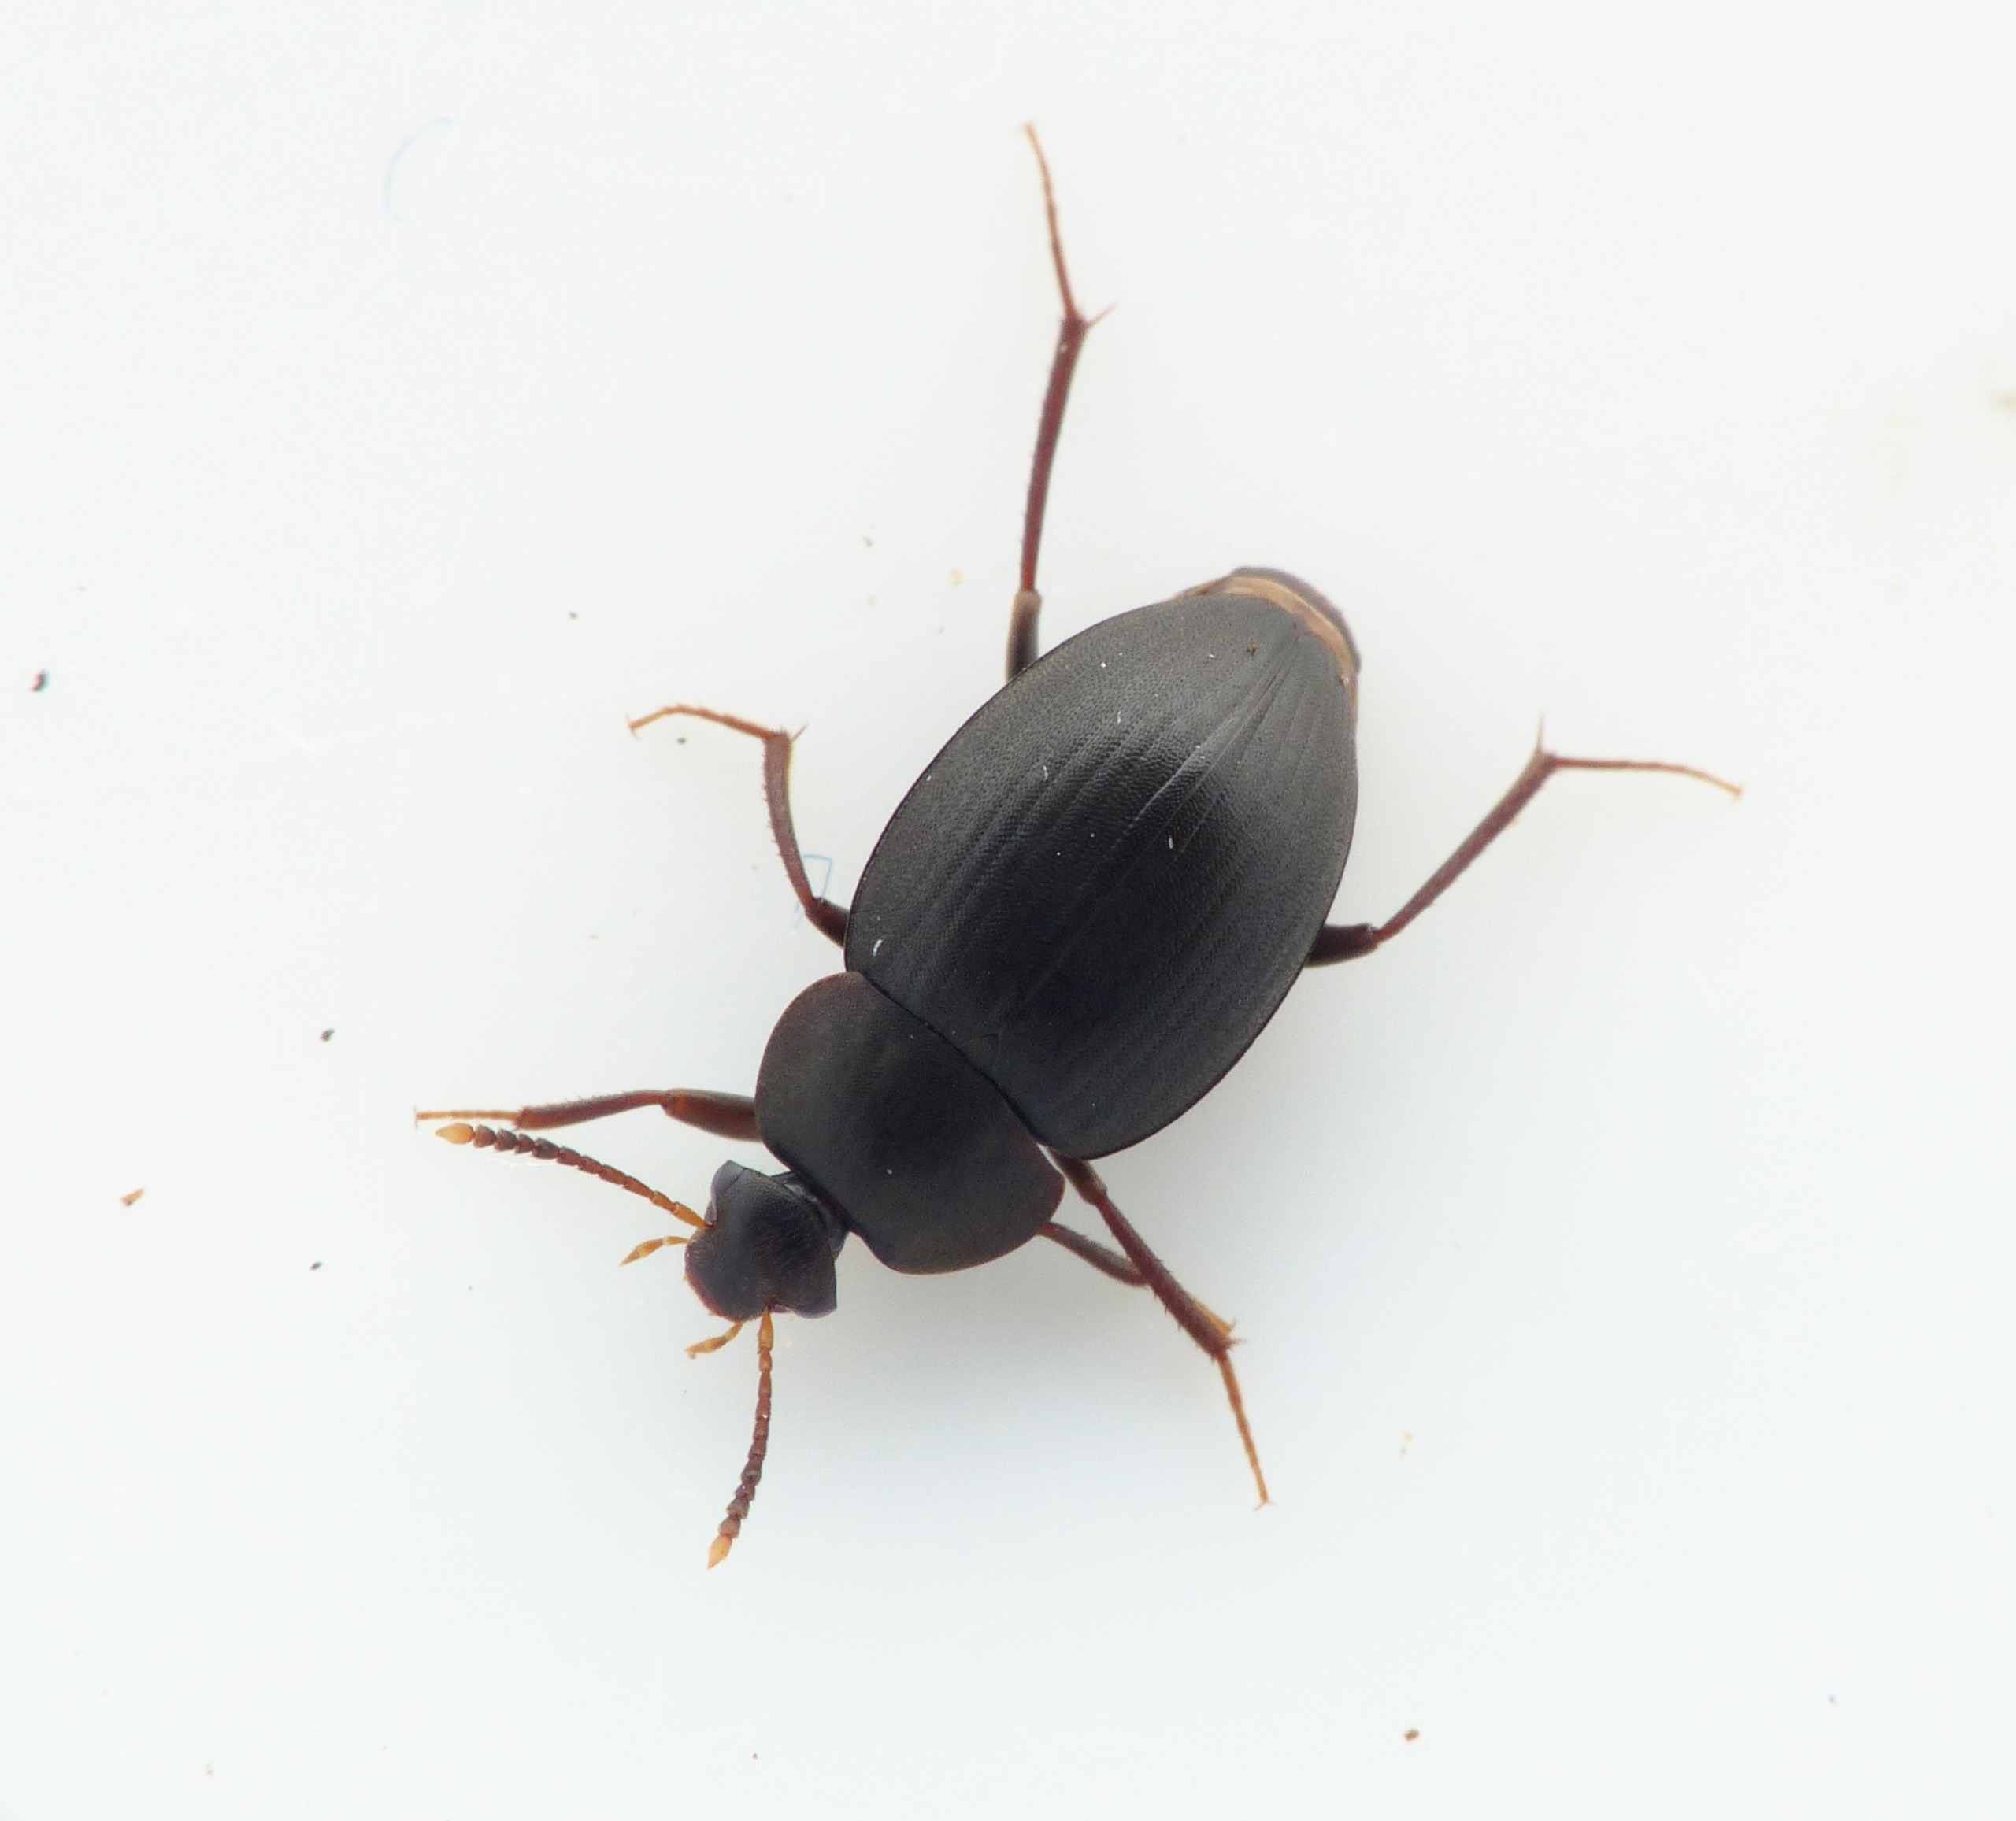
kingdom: Animalia
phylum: Arthropoda
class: Insecta
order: Coleoptera
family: Leiodidae
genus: Catops
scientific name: Catops picipes
